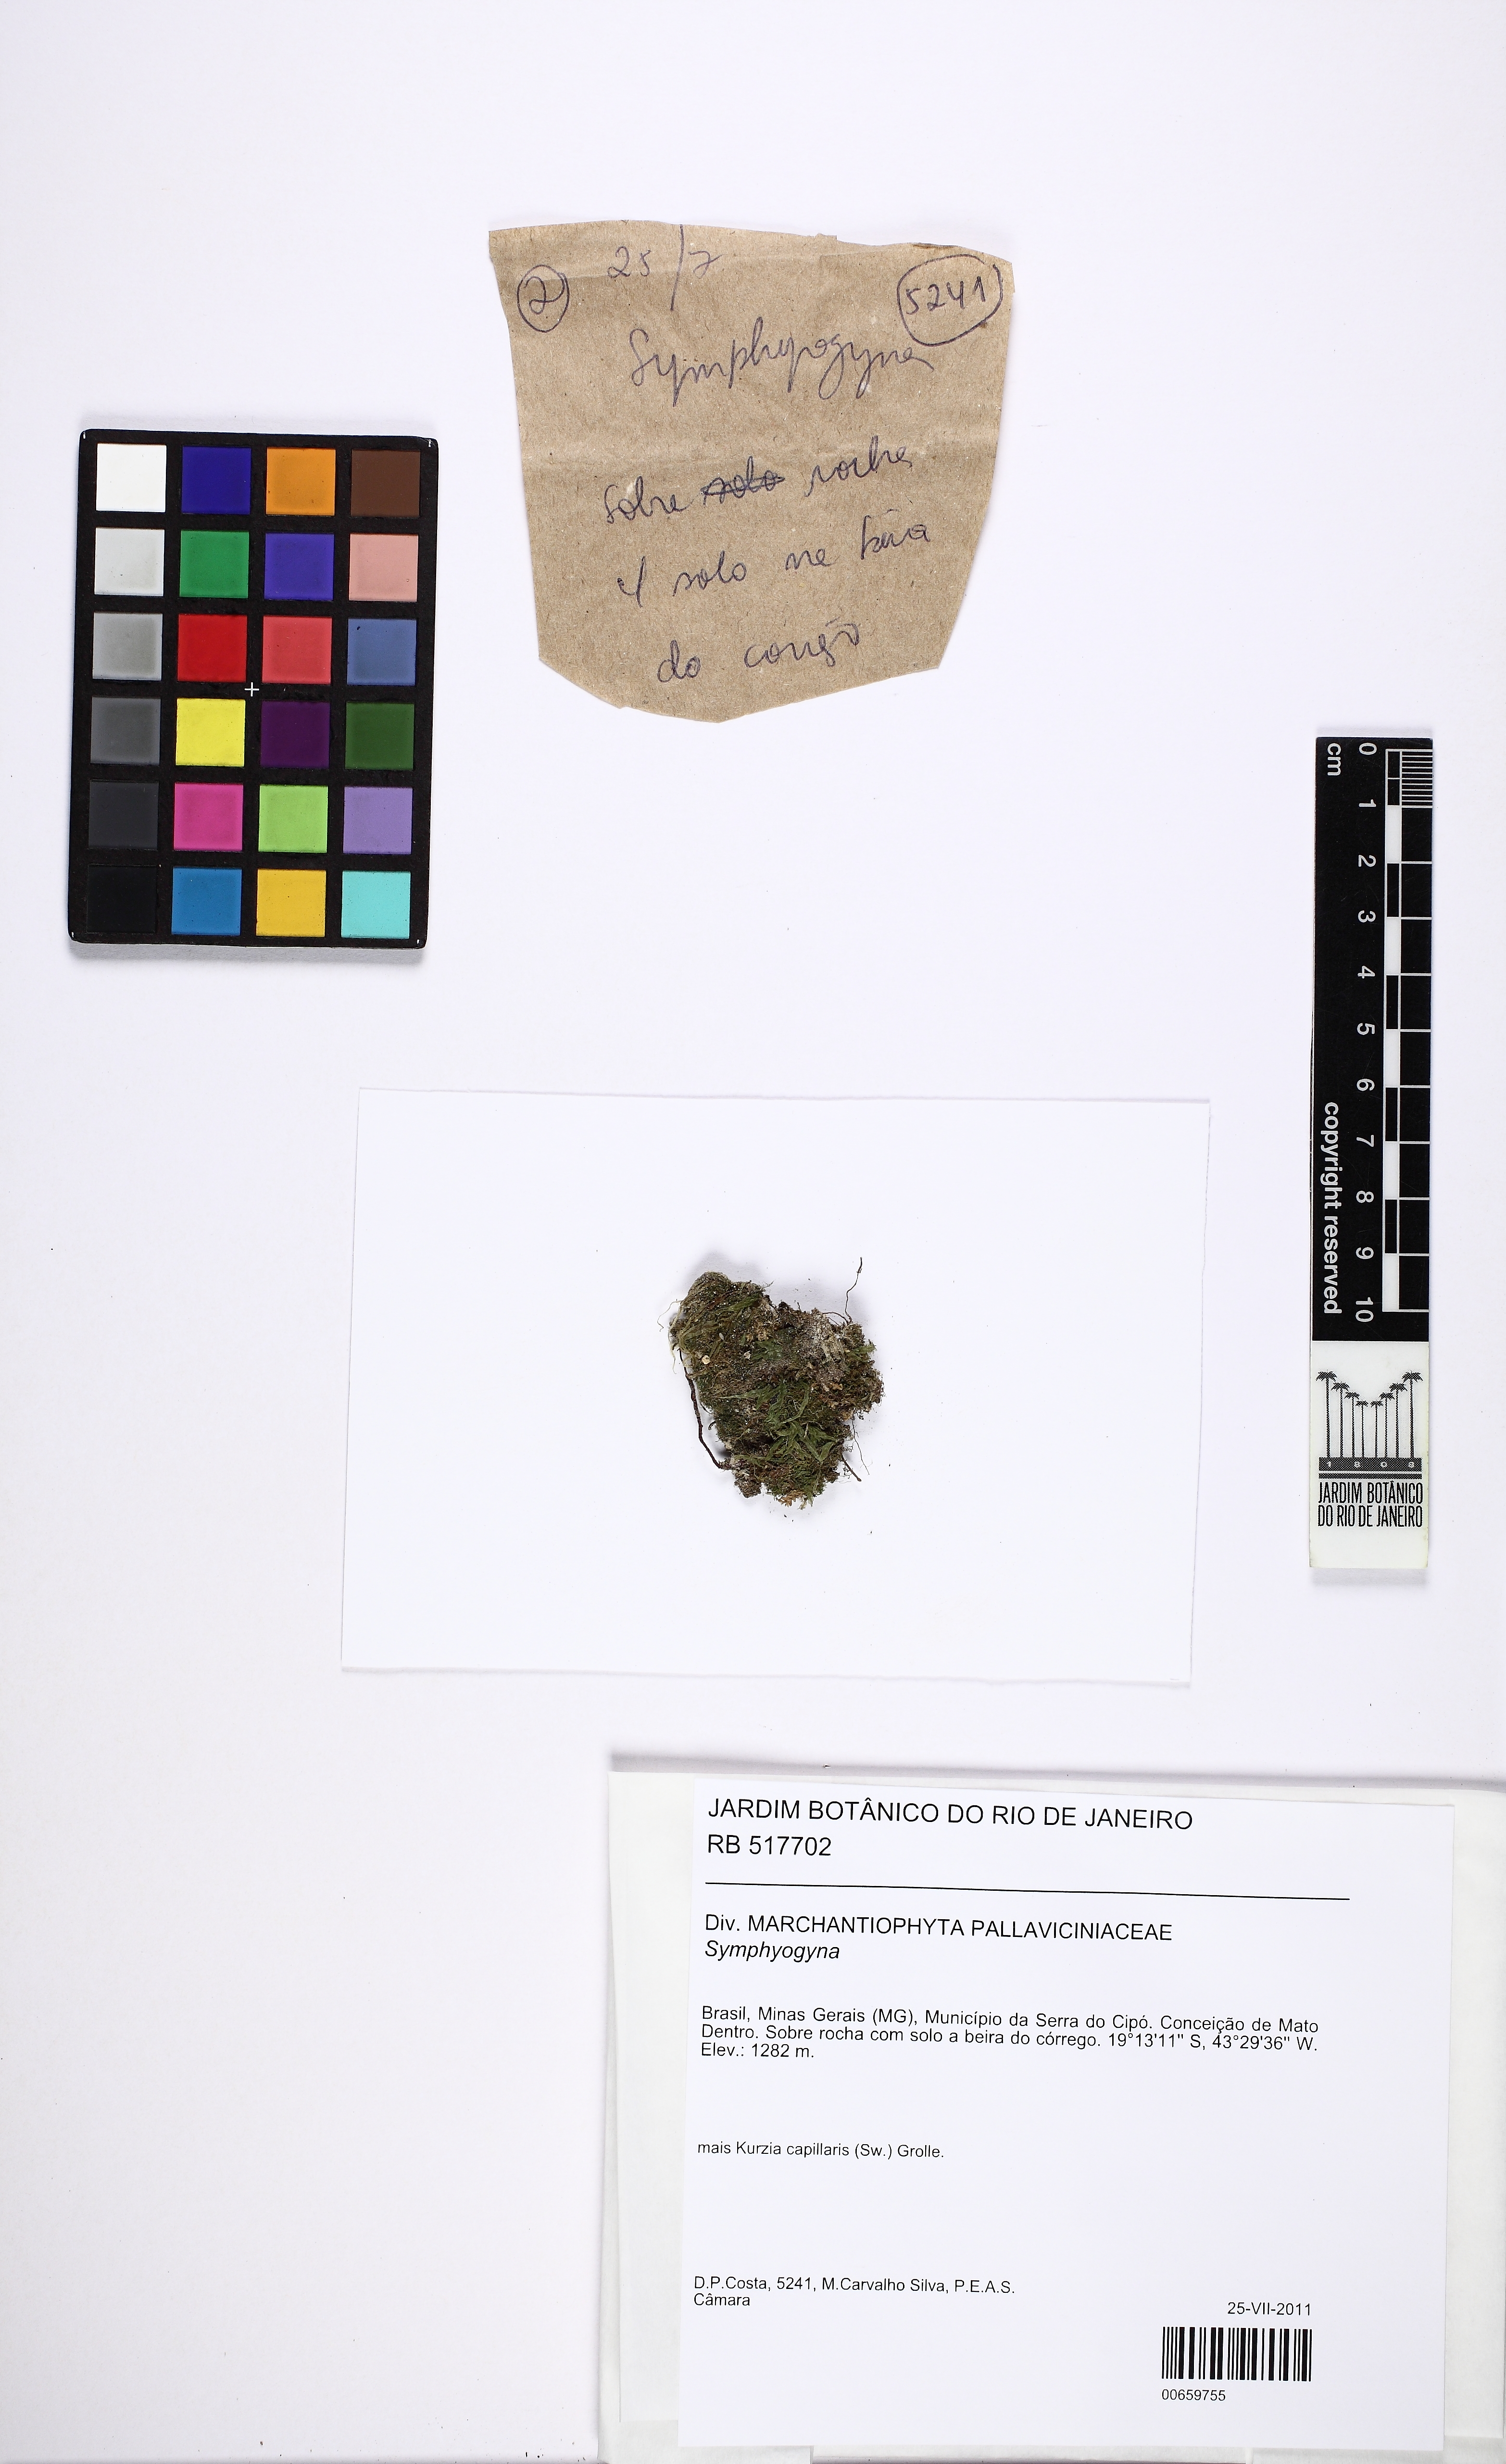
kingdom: Plantae
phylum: Marchantiophyta
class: Jungermanniopsida
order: Pallaviciniales
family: Pallaviciniaceae
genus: Symphyogyna
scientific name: Symphyogyna
